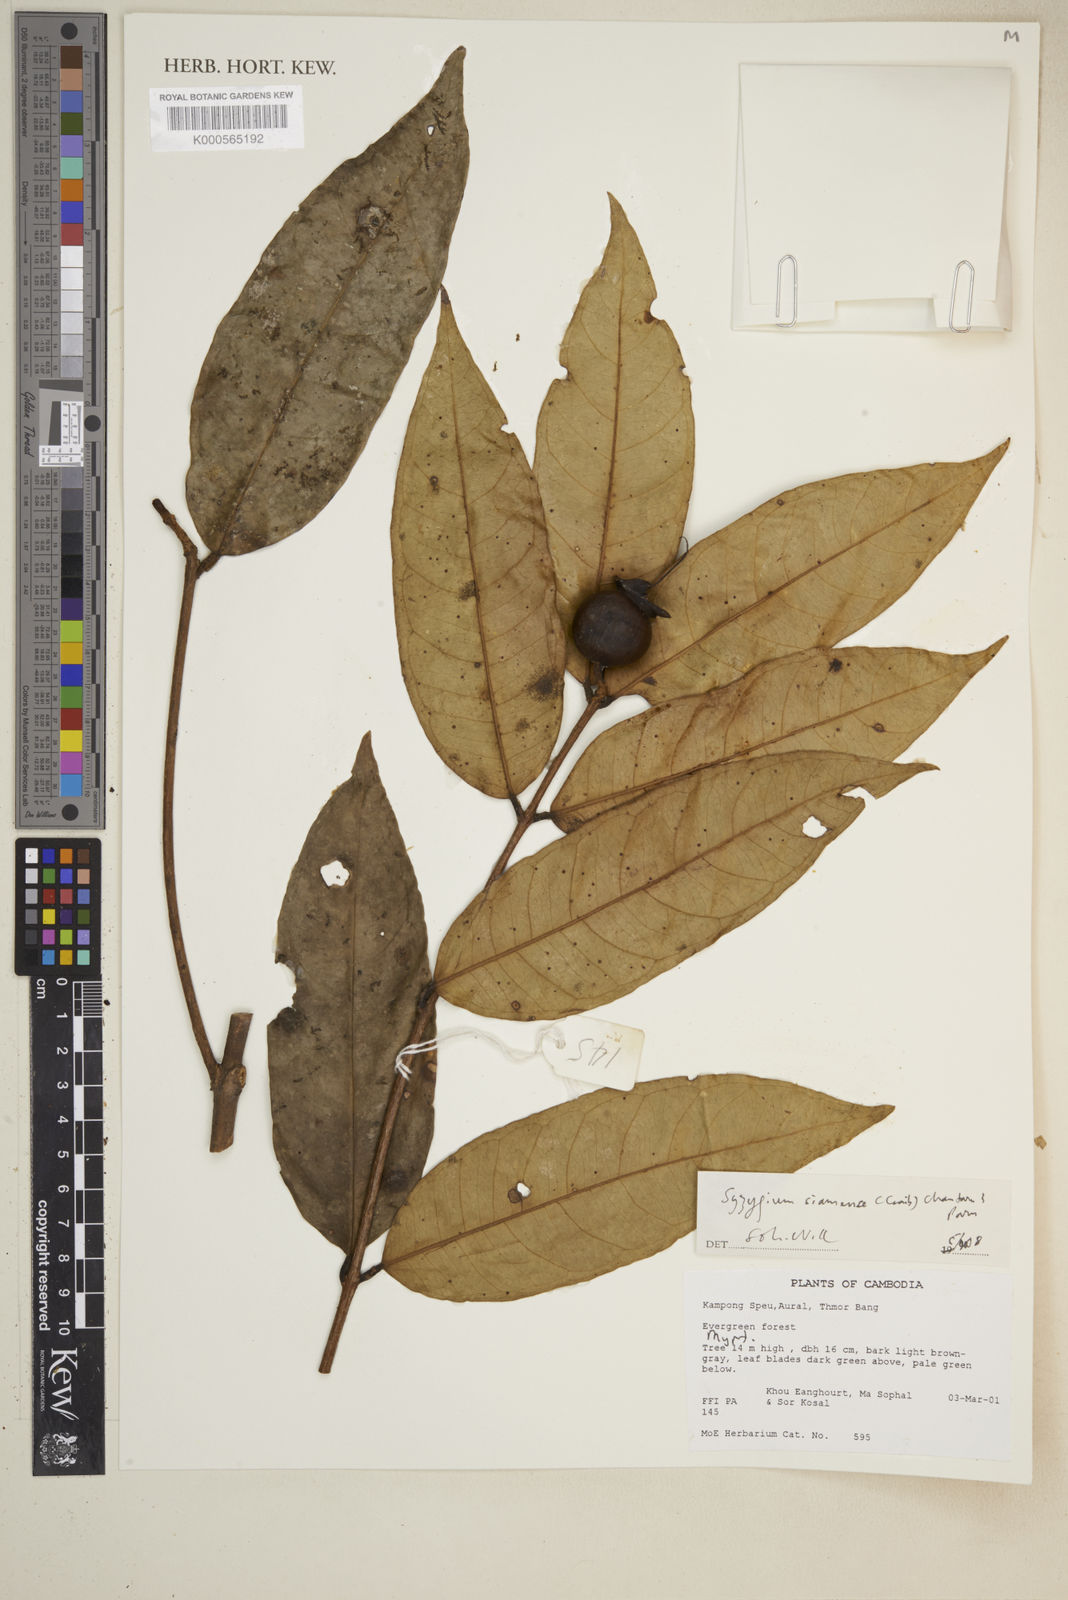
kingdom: Plantae
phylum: Tracheophyta
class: Magnoliopsida
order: Myrtales
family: Myrtaceae
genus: Syzygium
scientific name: Syzygium
